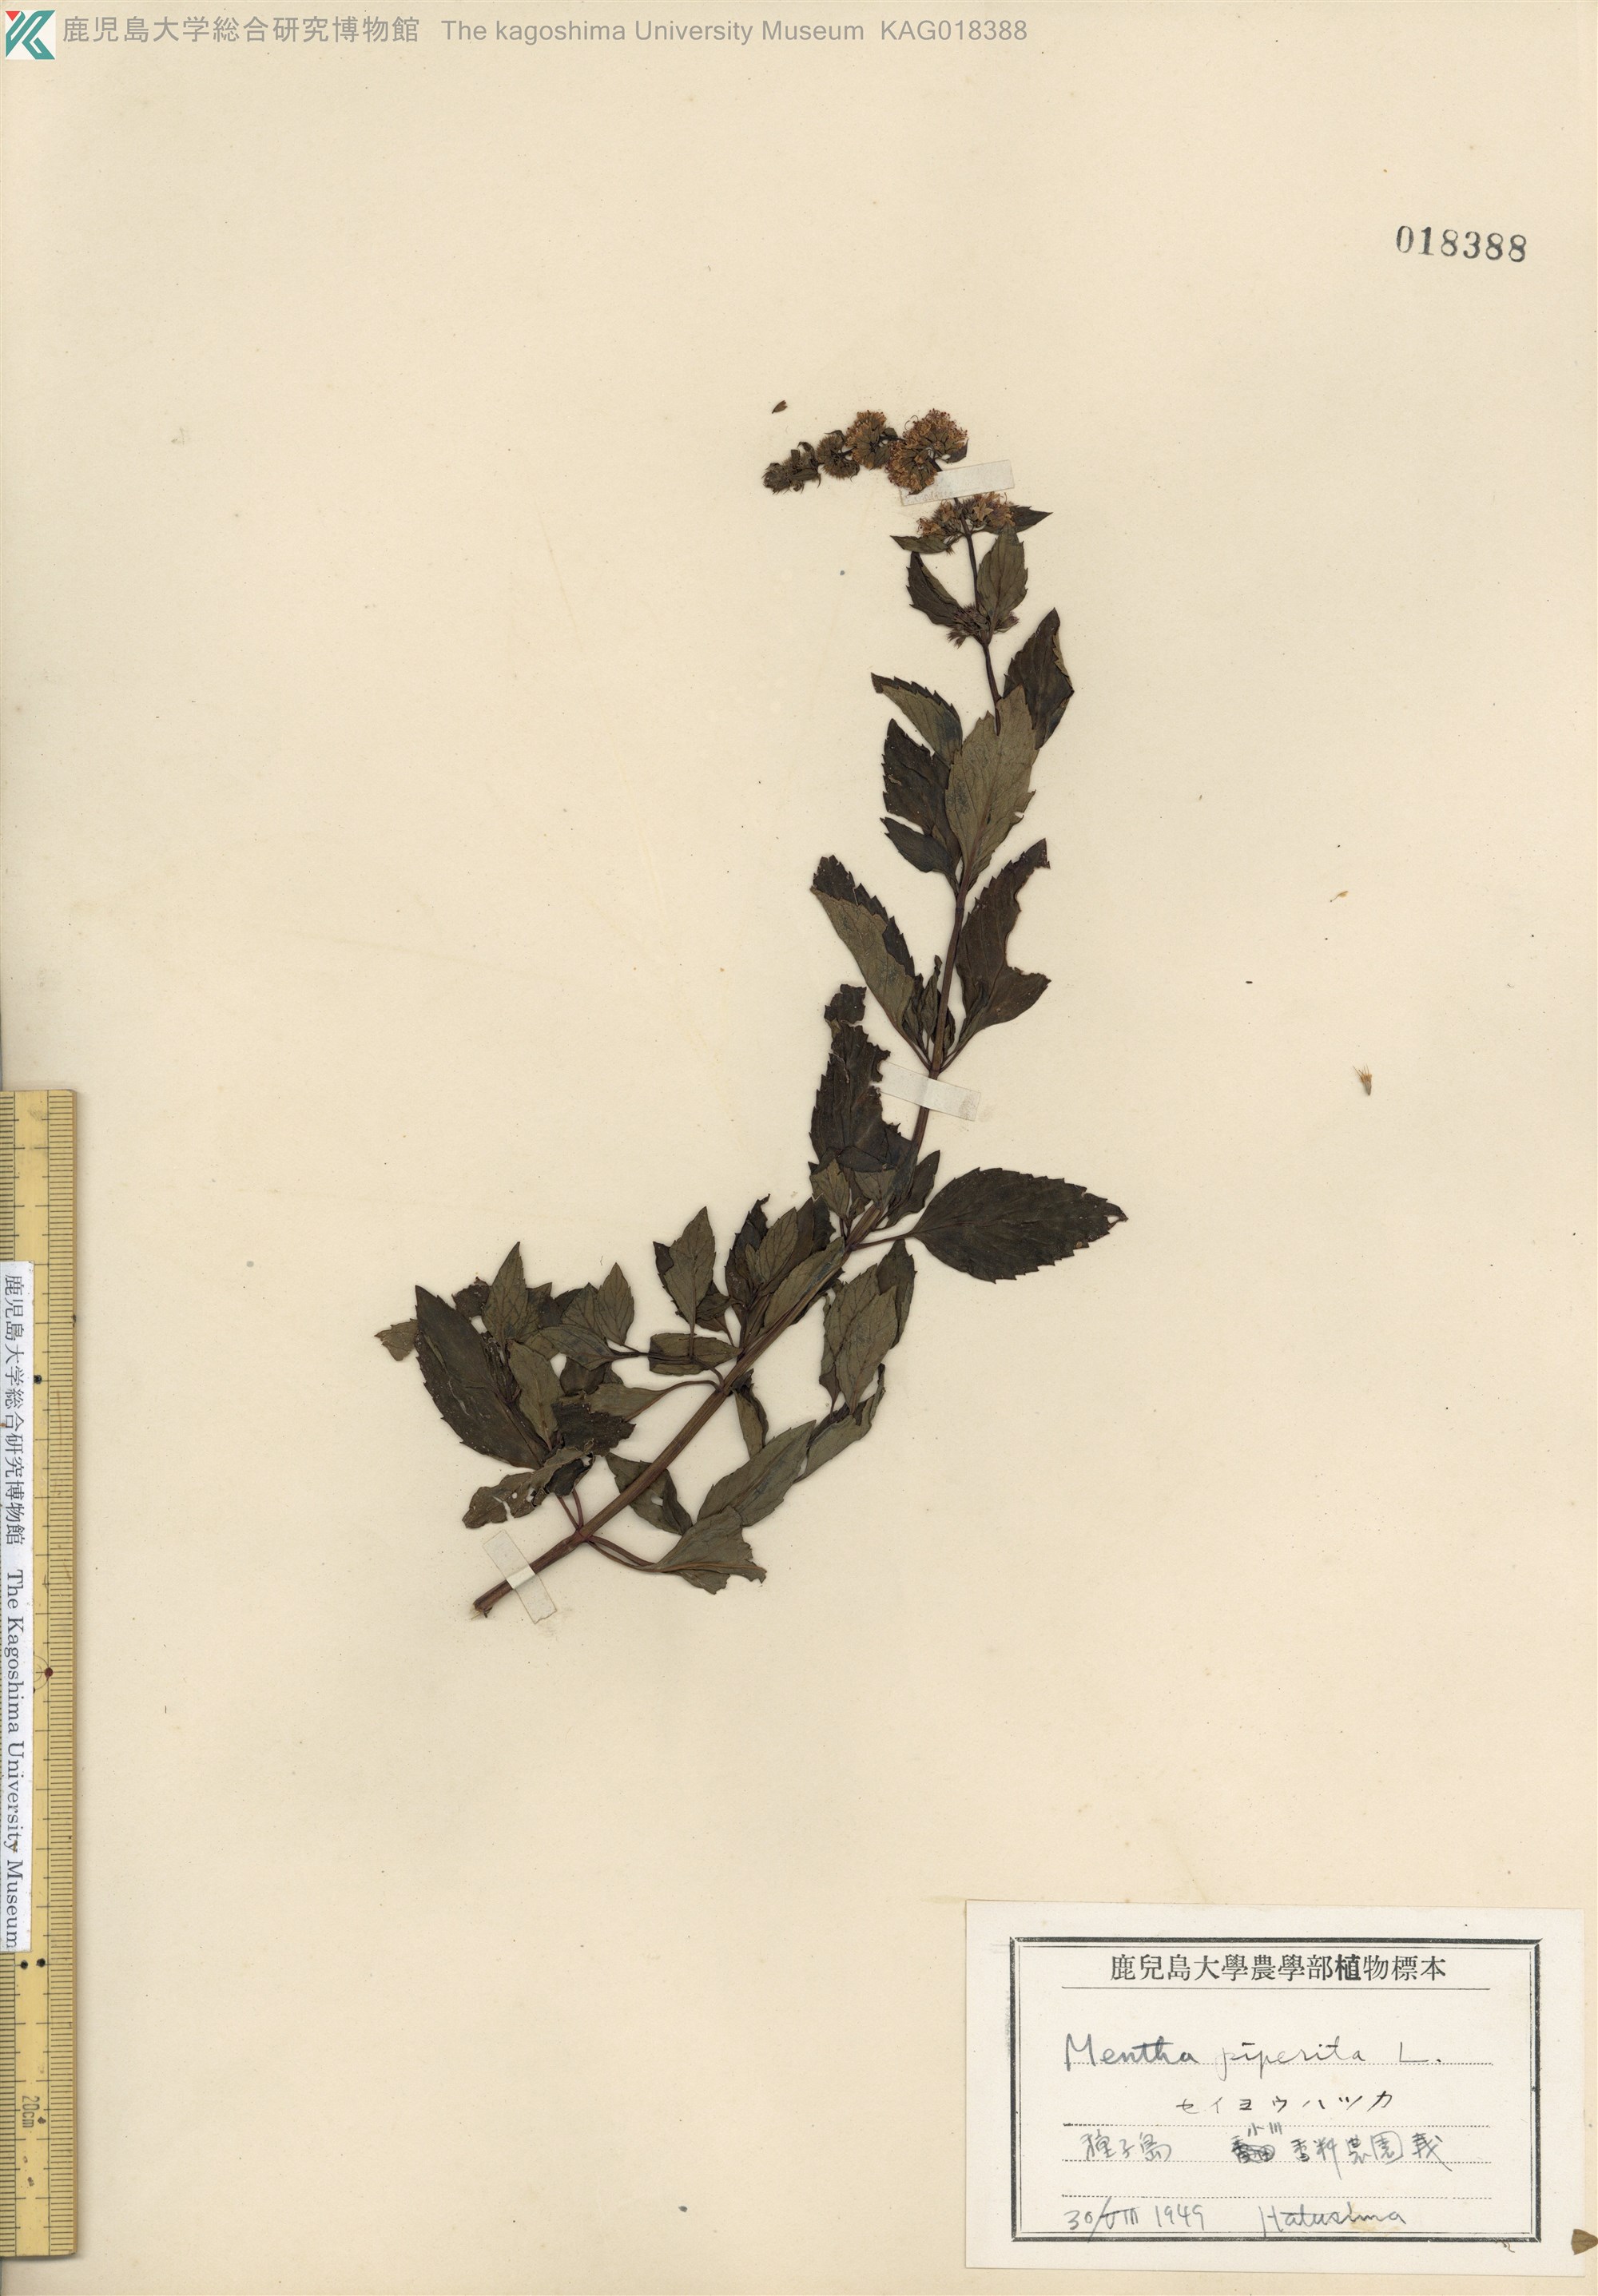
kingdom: Plantae
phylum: Tracheophyta
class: Magnoliopsida
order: Lamiales
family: Lamiaceae
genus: Mentha
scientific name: Mentha piperita
